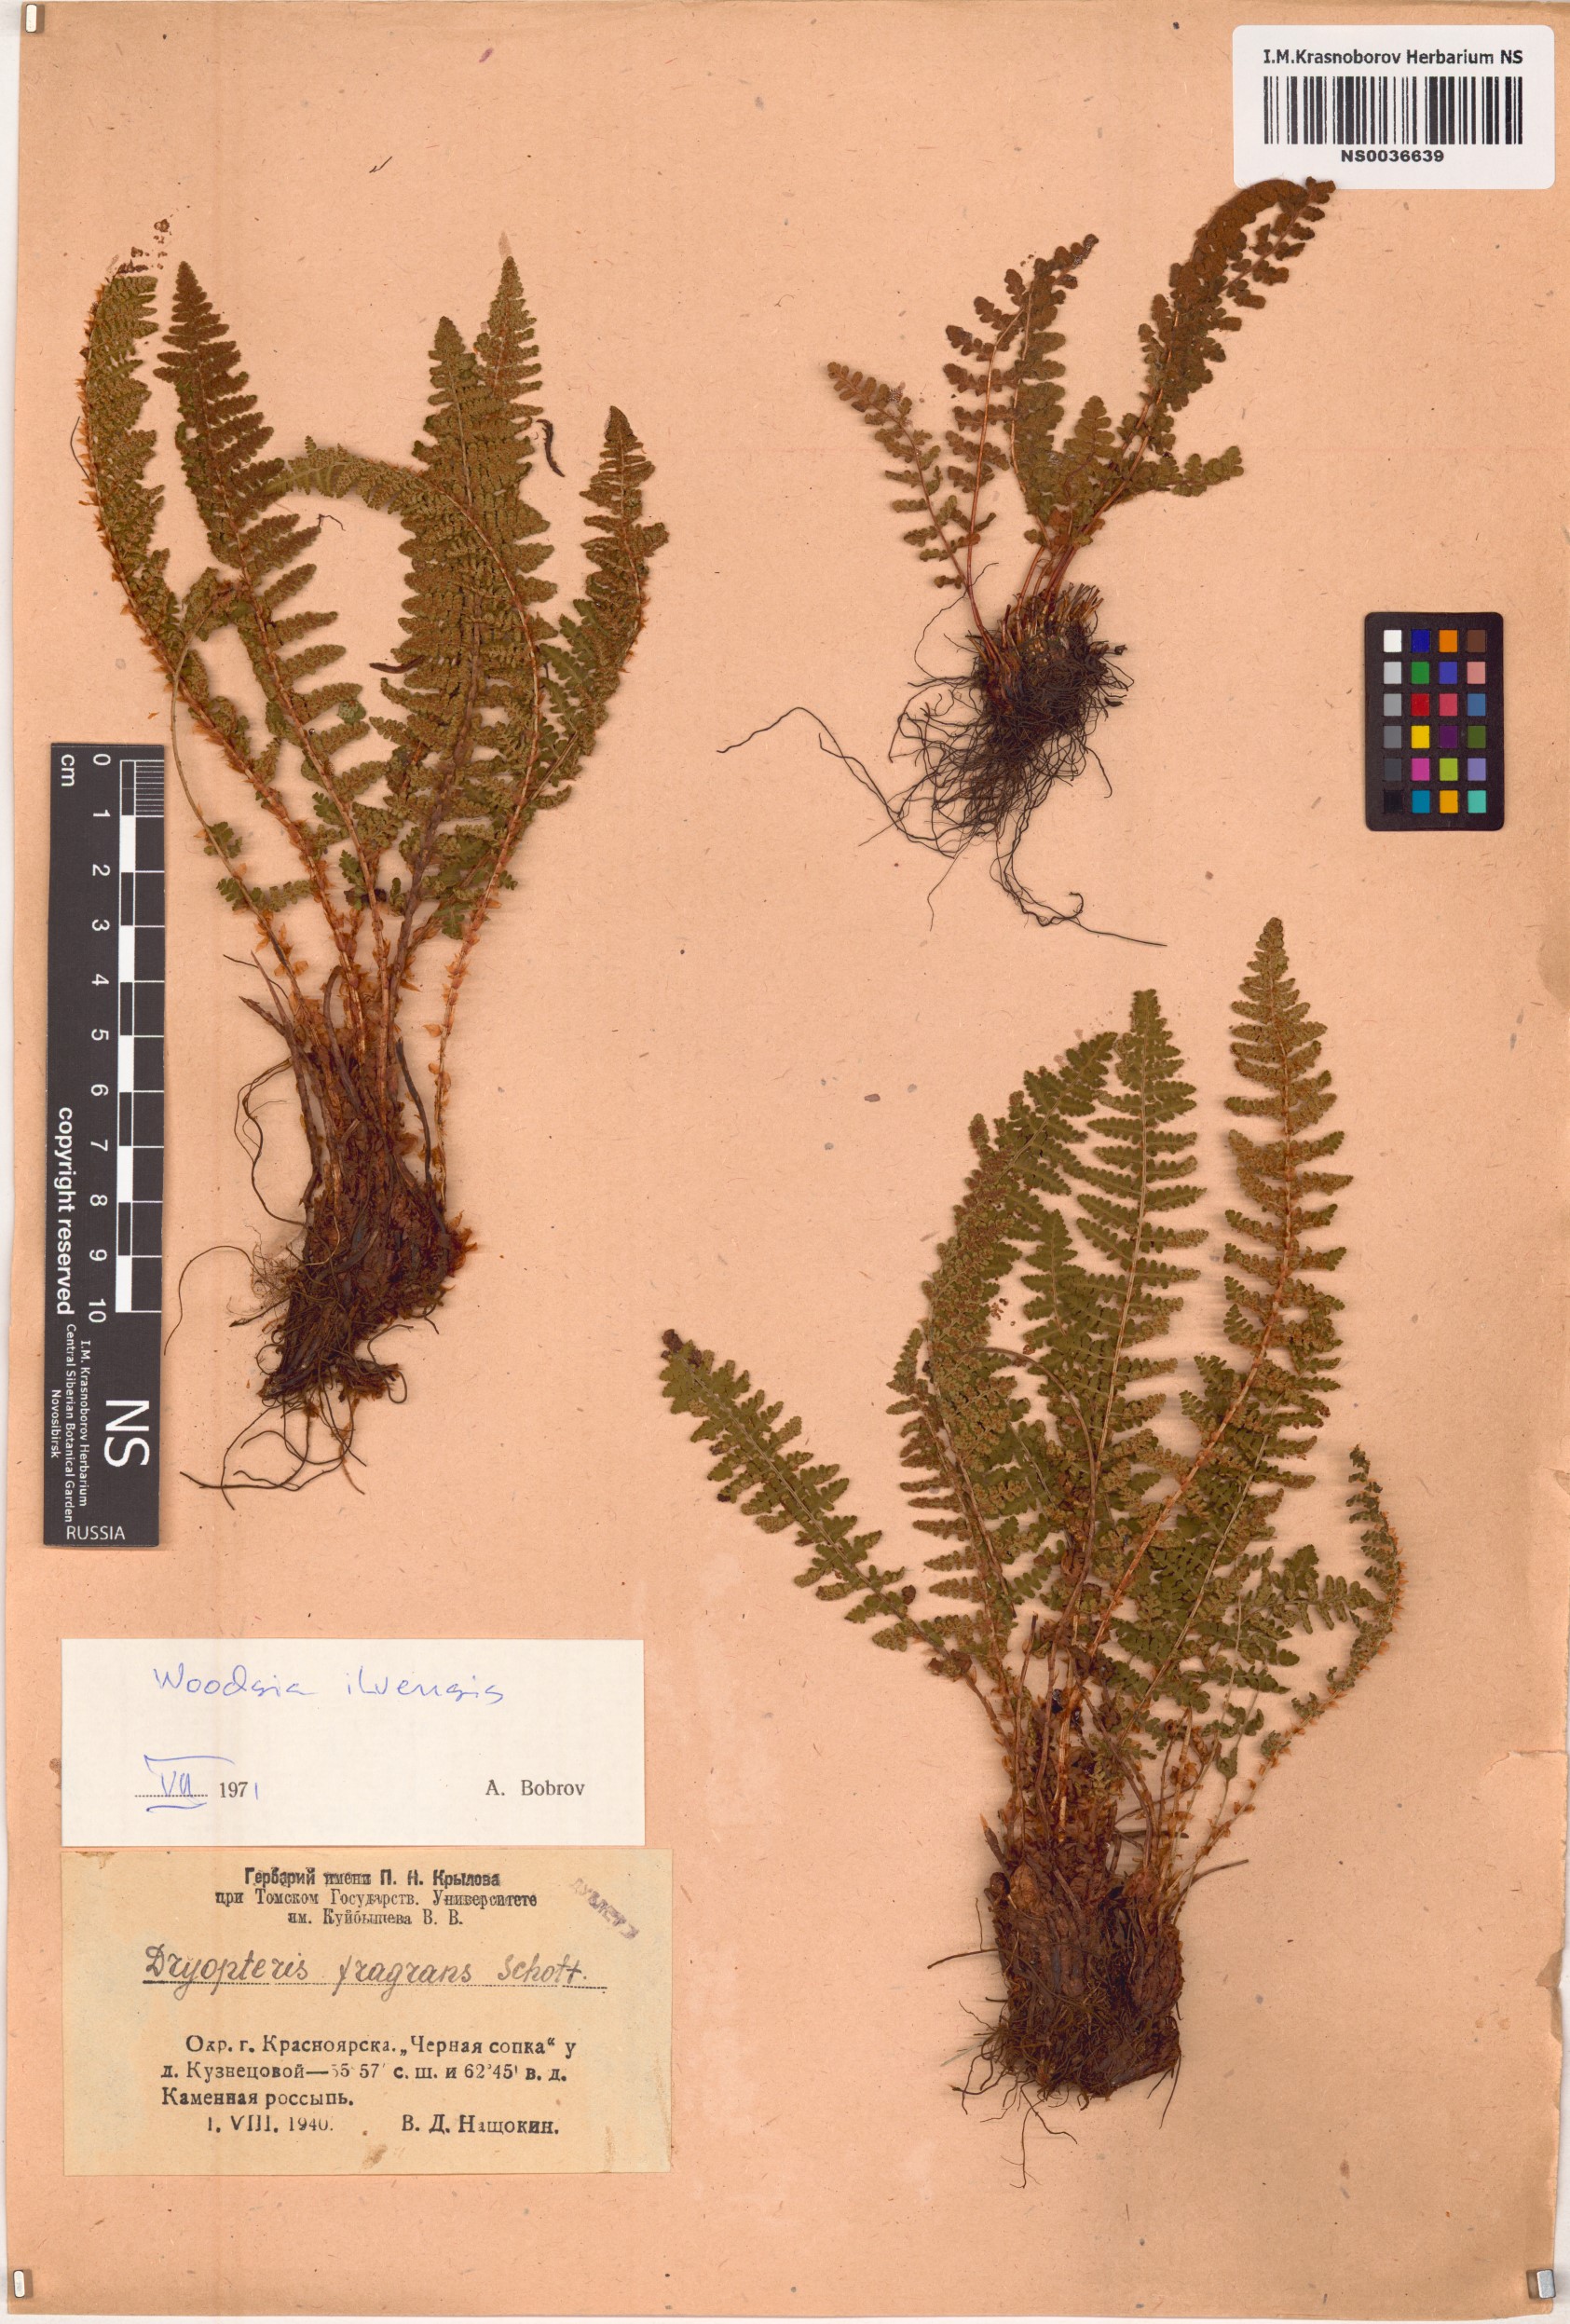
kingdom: Plantae
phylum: Tracheophyta
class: Polypodiopsida
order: Polypodiales
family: Woodsiaceae
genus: Woodsia
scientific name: Woodsia ilvensis
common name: Fragrant woodsia
